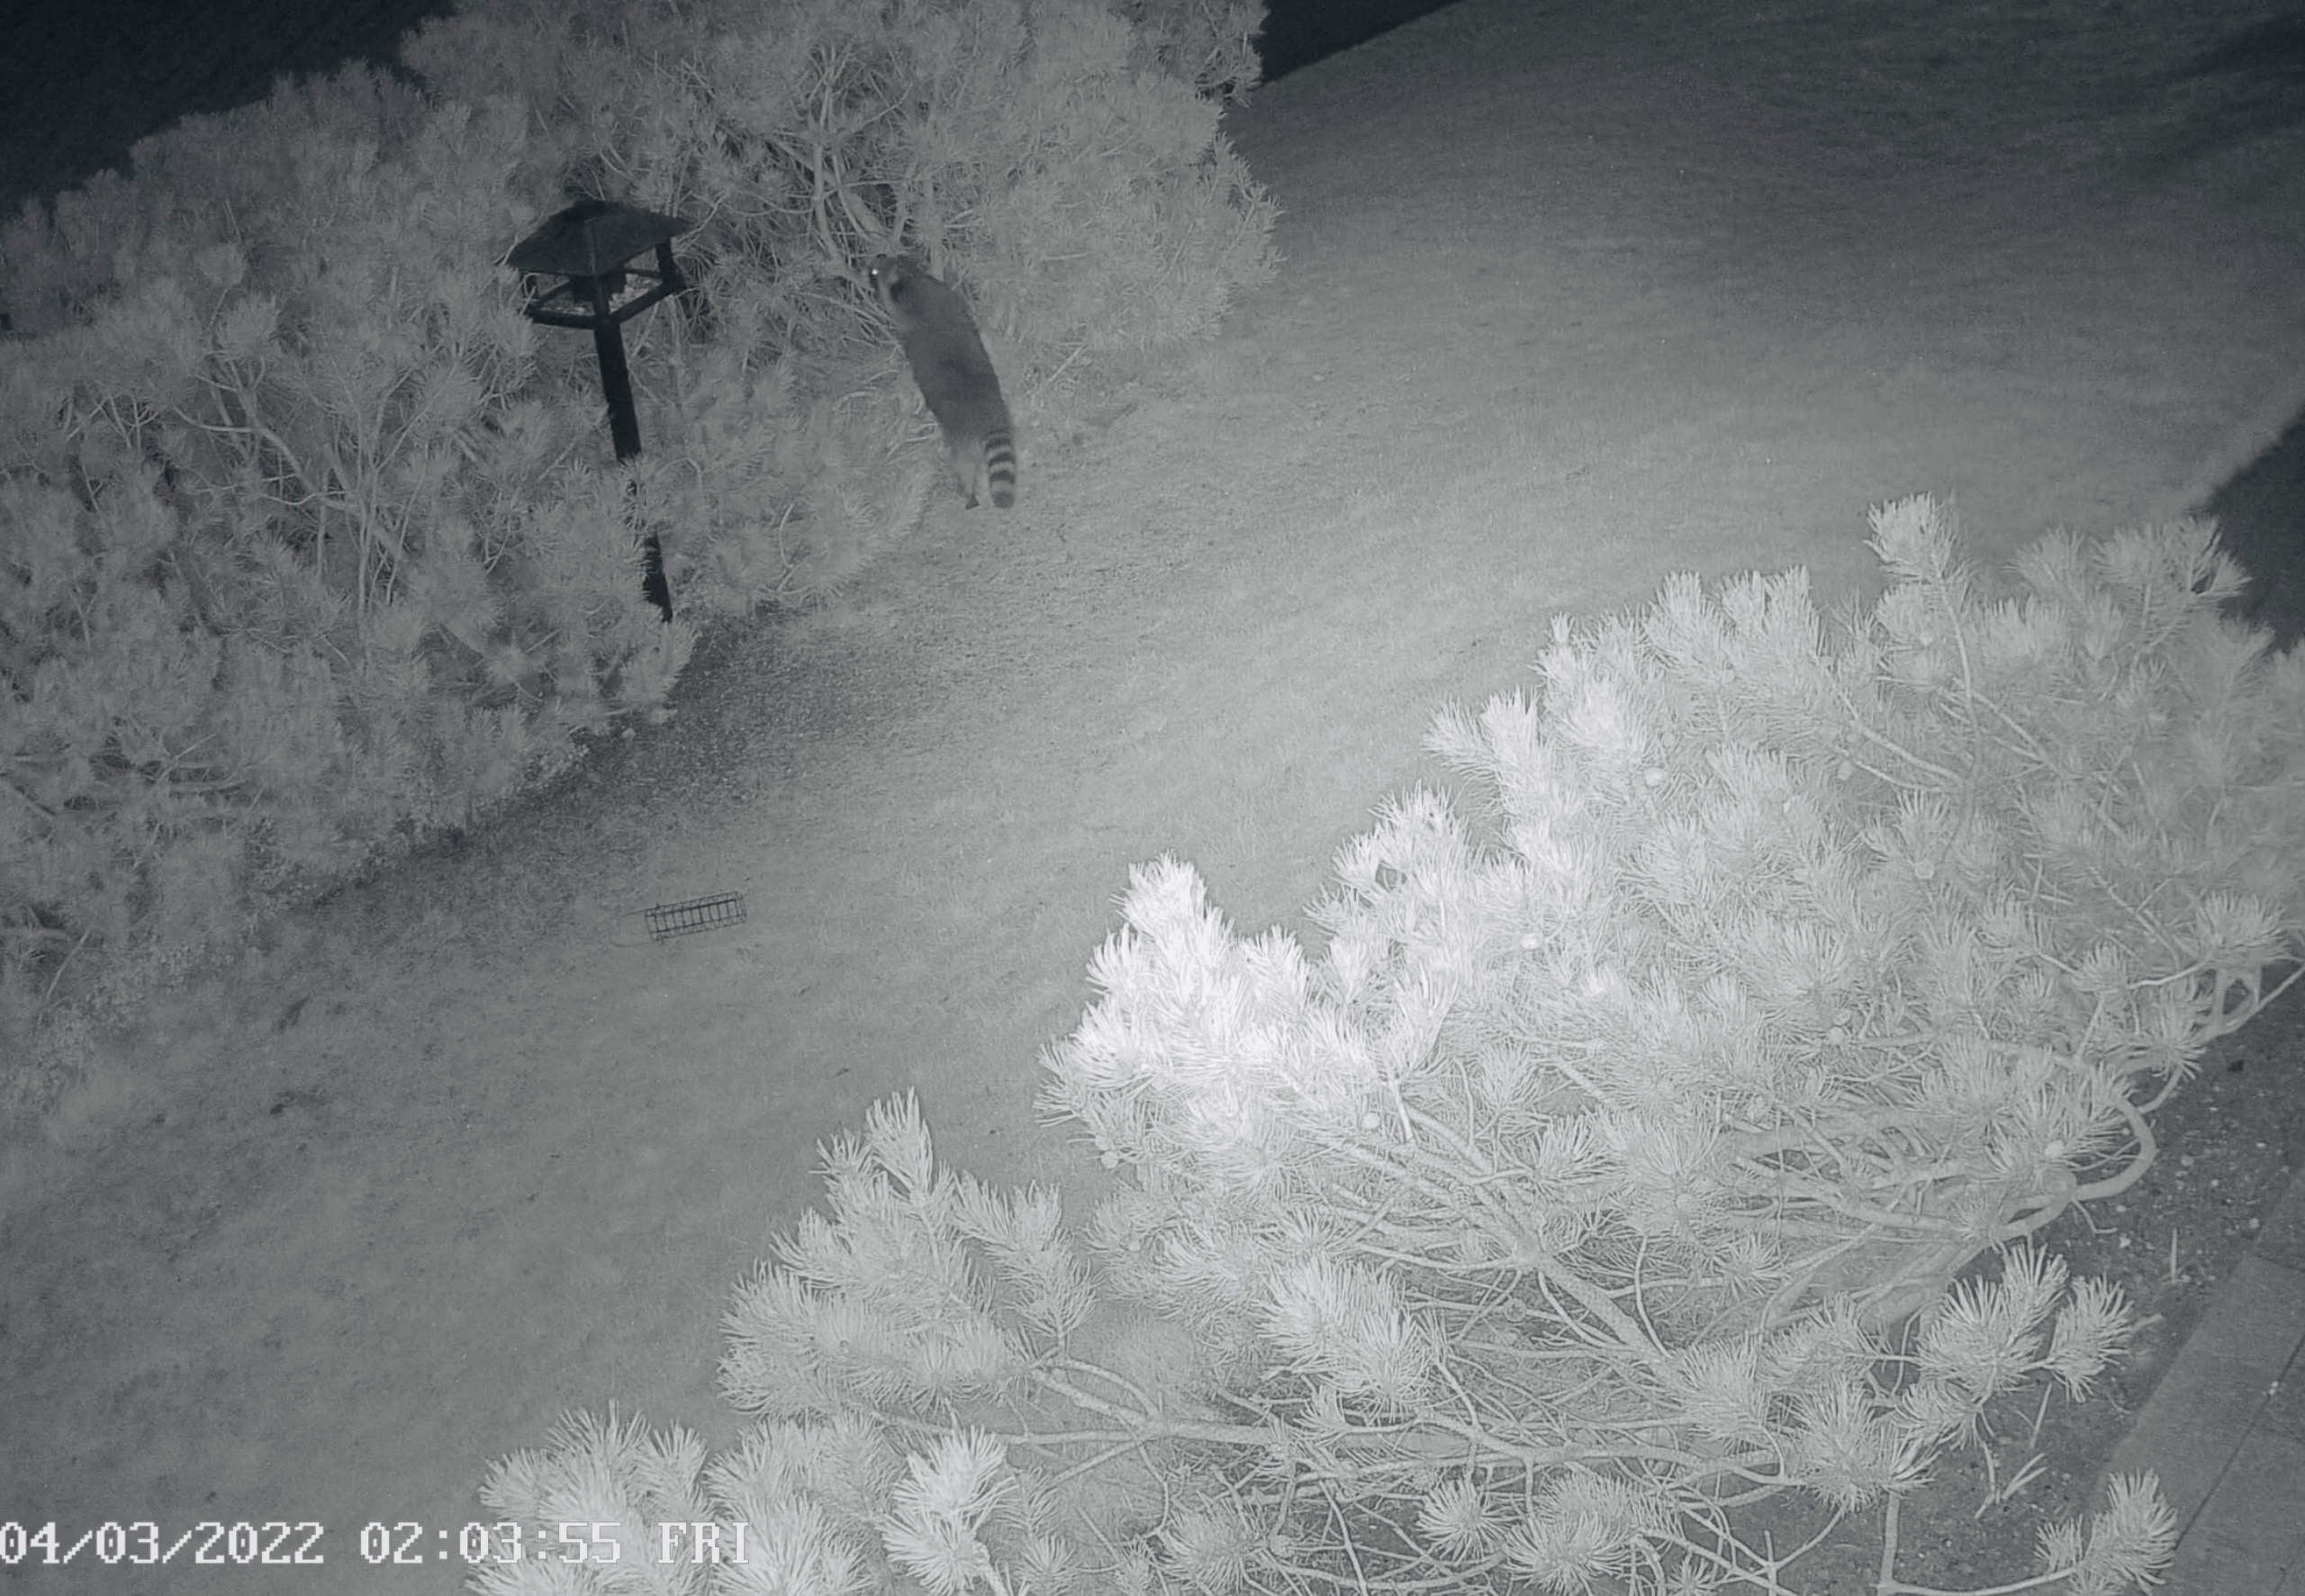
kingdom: Animalia
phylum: Chordata
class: Mammalia
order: Carnivora
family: Procyonidae
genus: Procyon
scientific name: Procyon lotor
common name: Vaskebjørn
